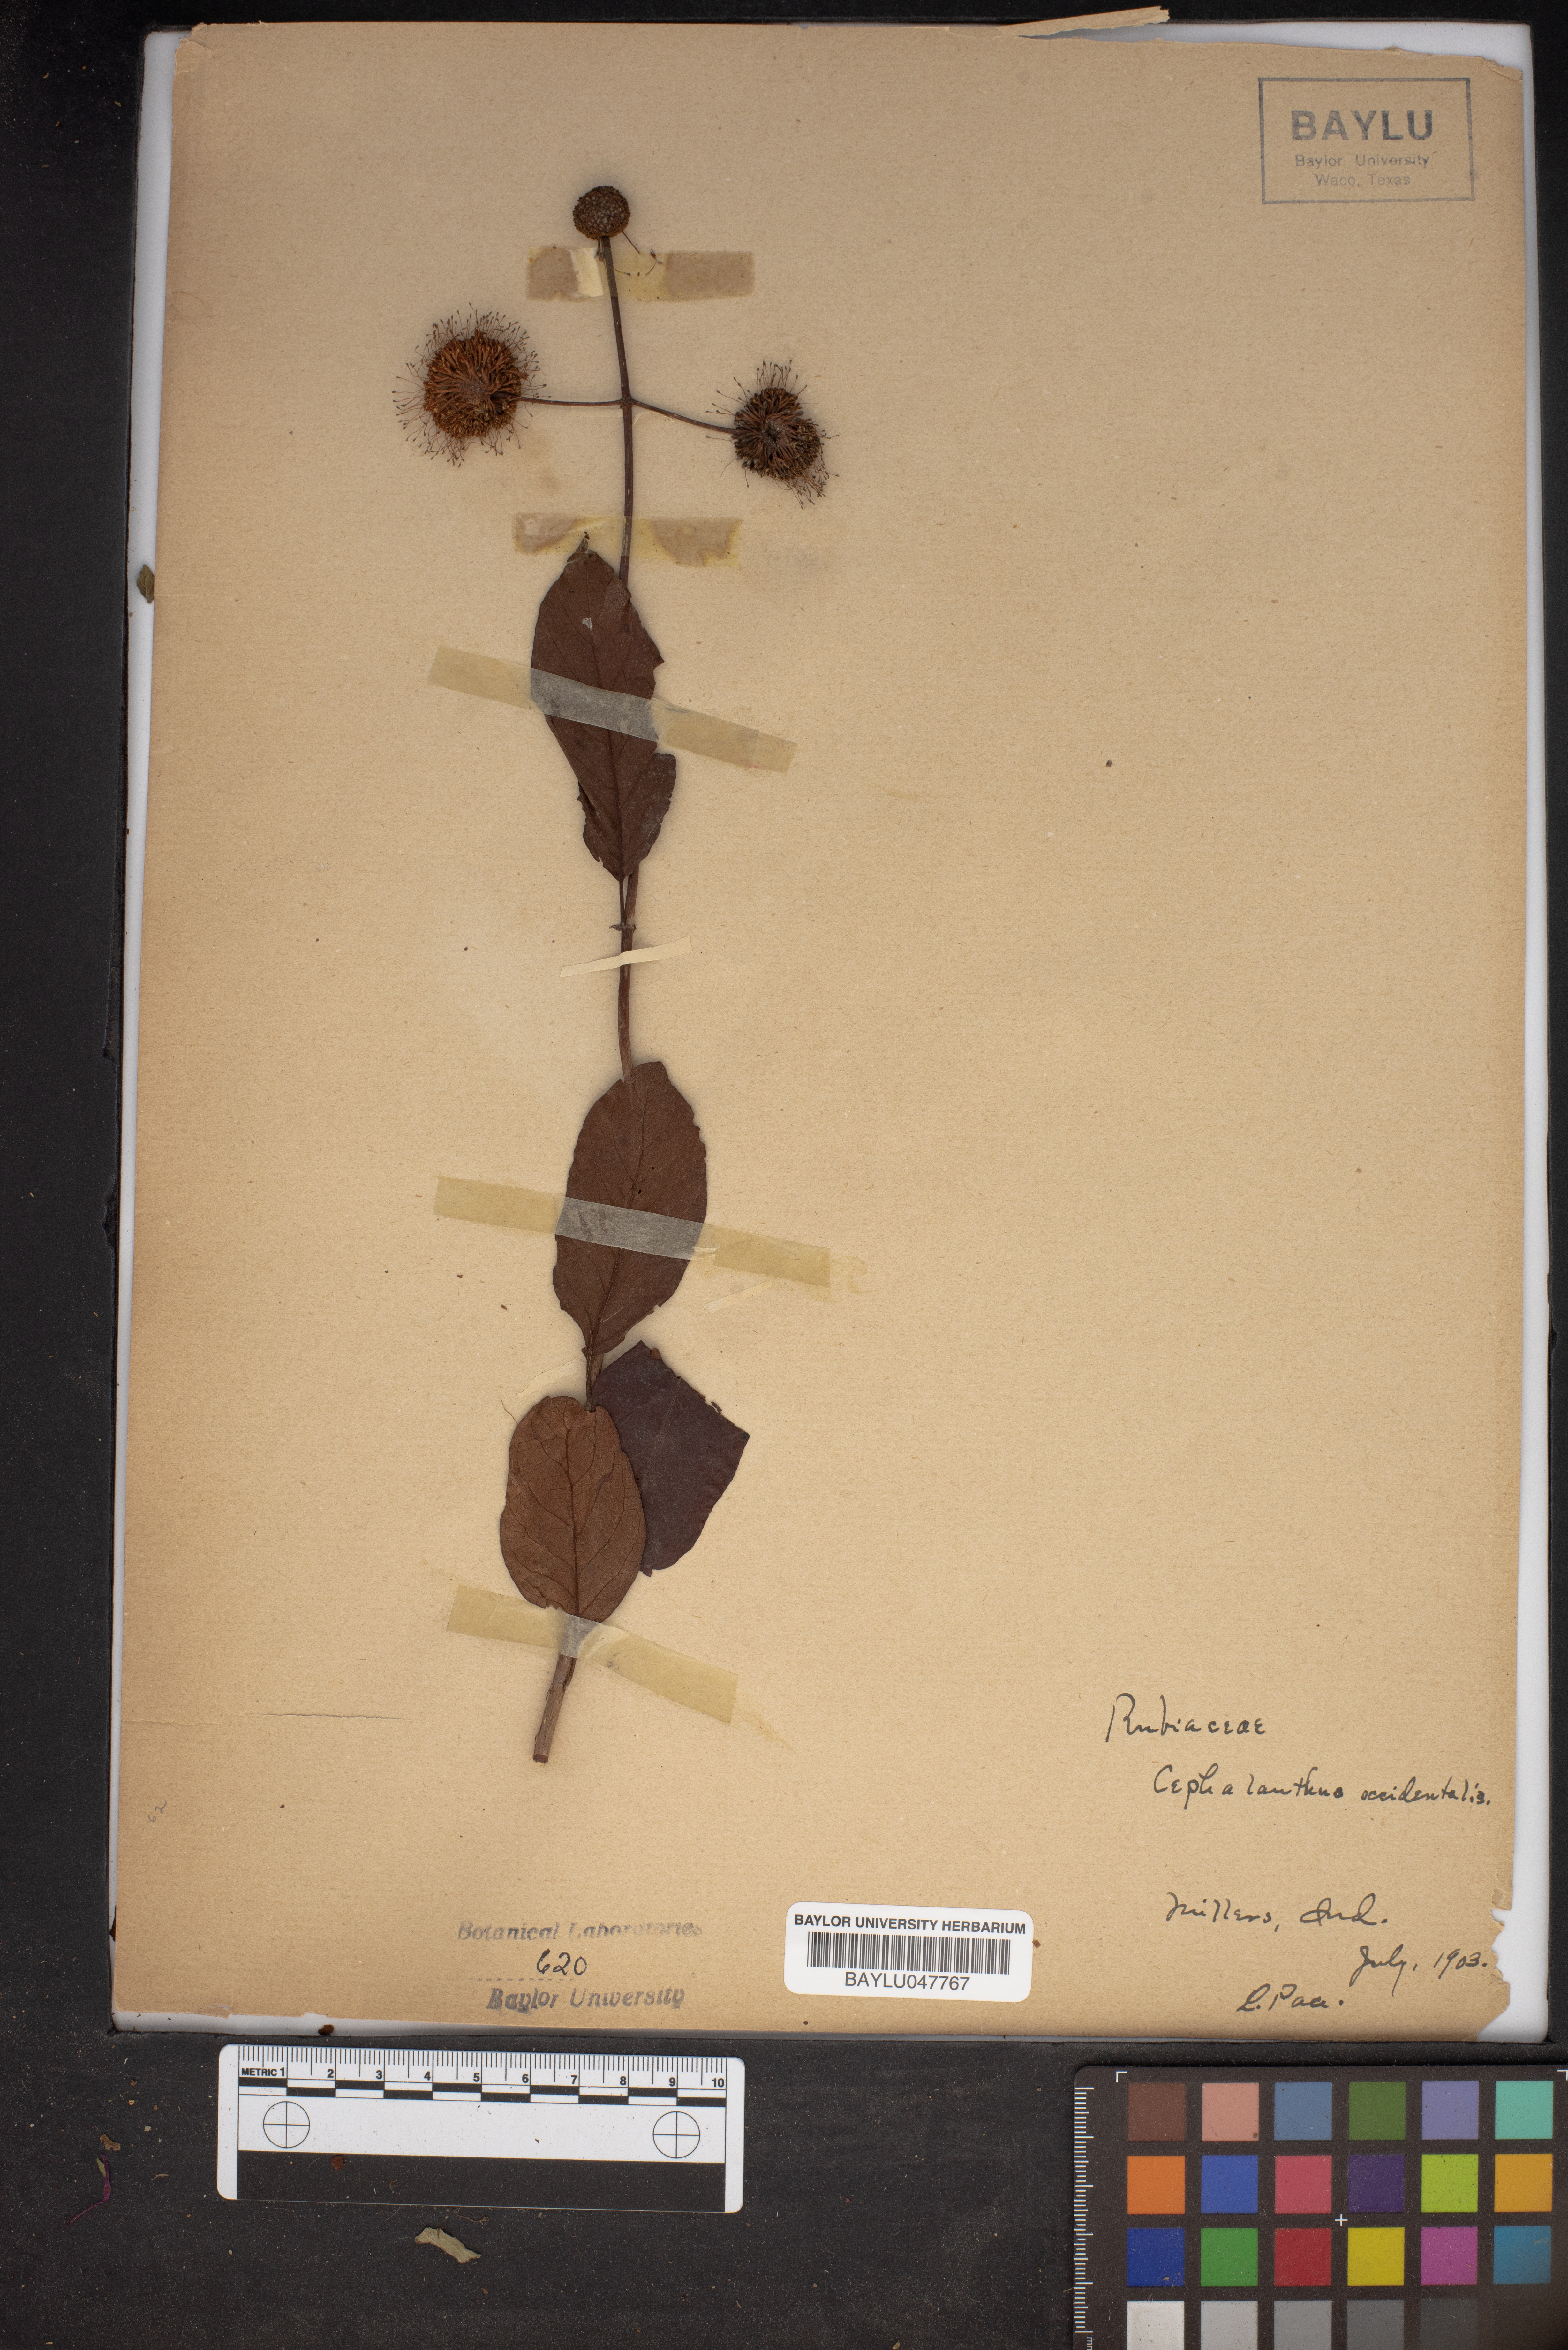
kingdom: Plantae
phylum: Tracheophyta
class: Magnoliopsida
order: Gentianales
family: Rubiaceae
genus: Cephalanthus
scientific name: Cephalanthus occidentalis
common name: Button-willow
